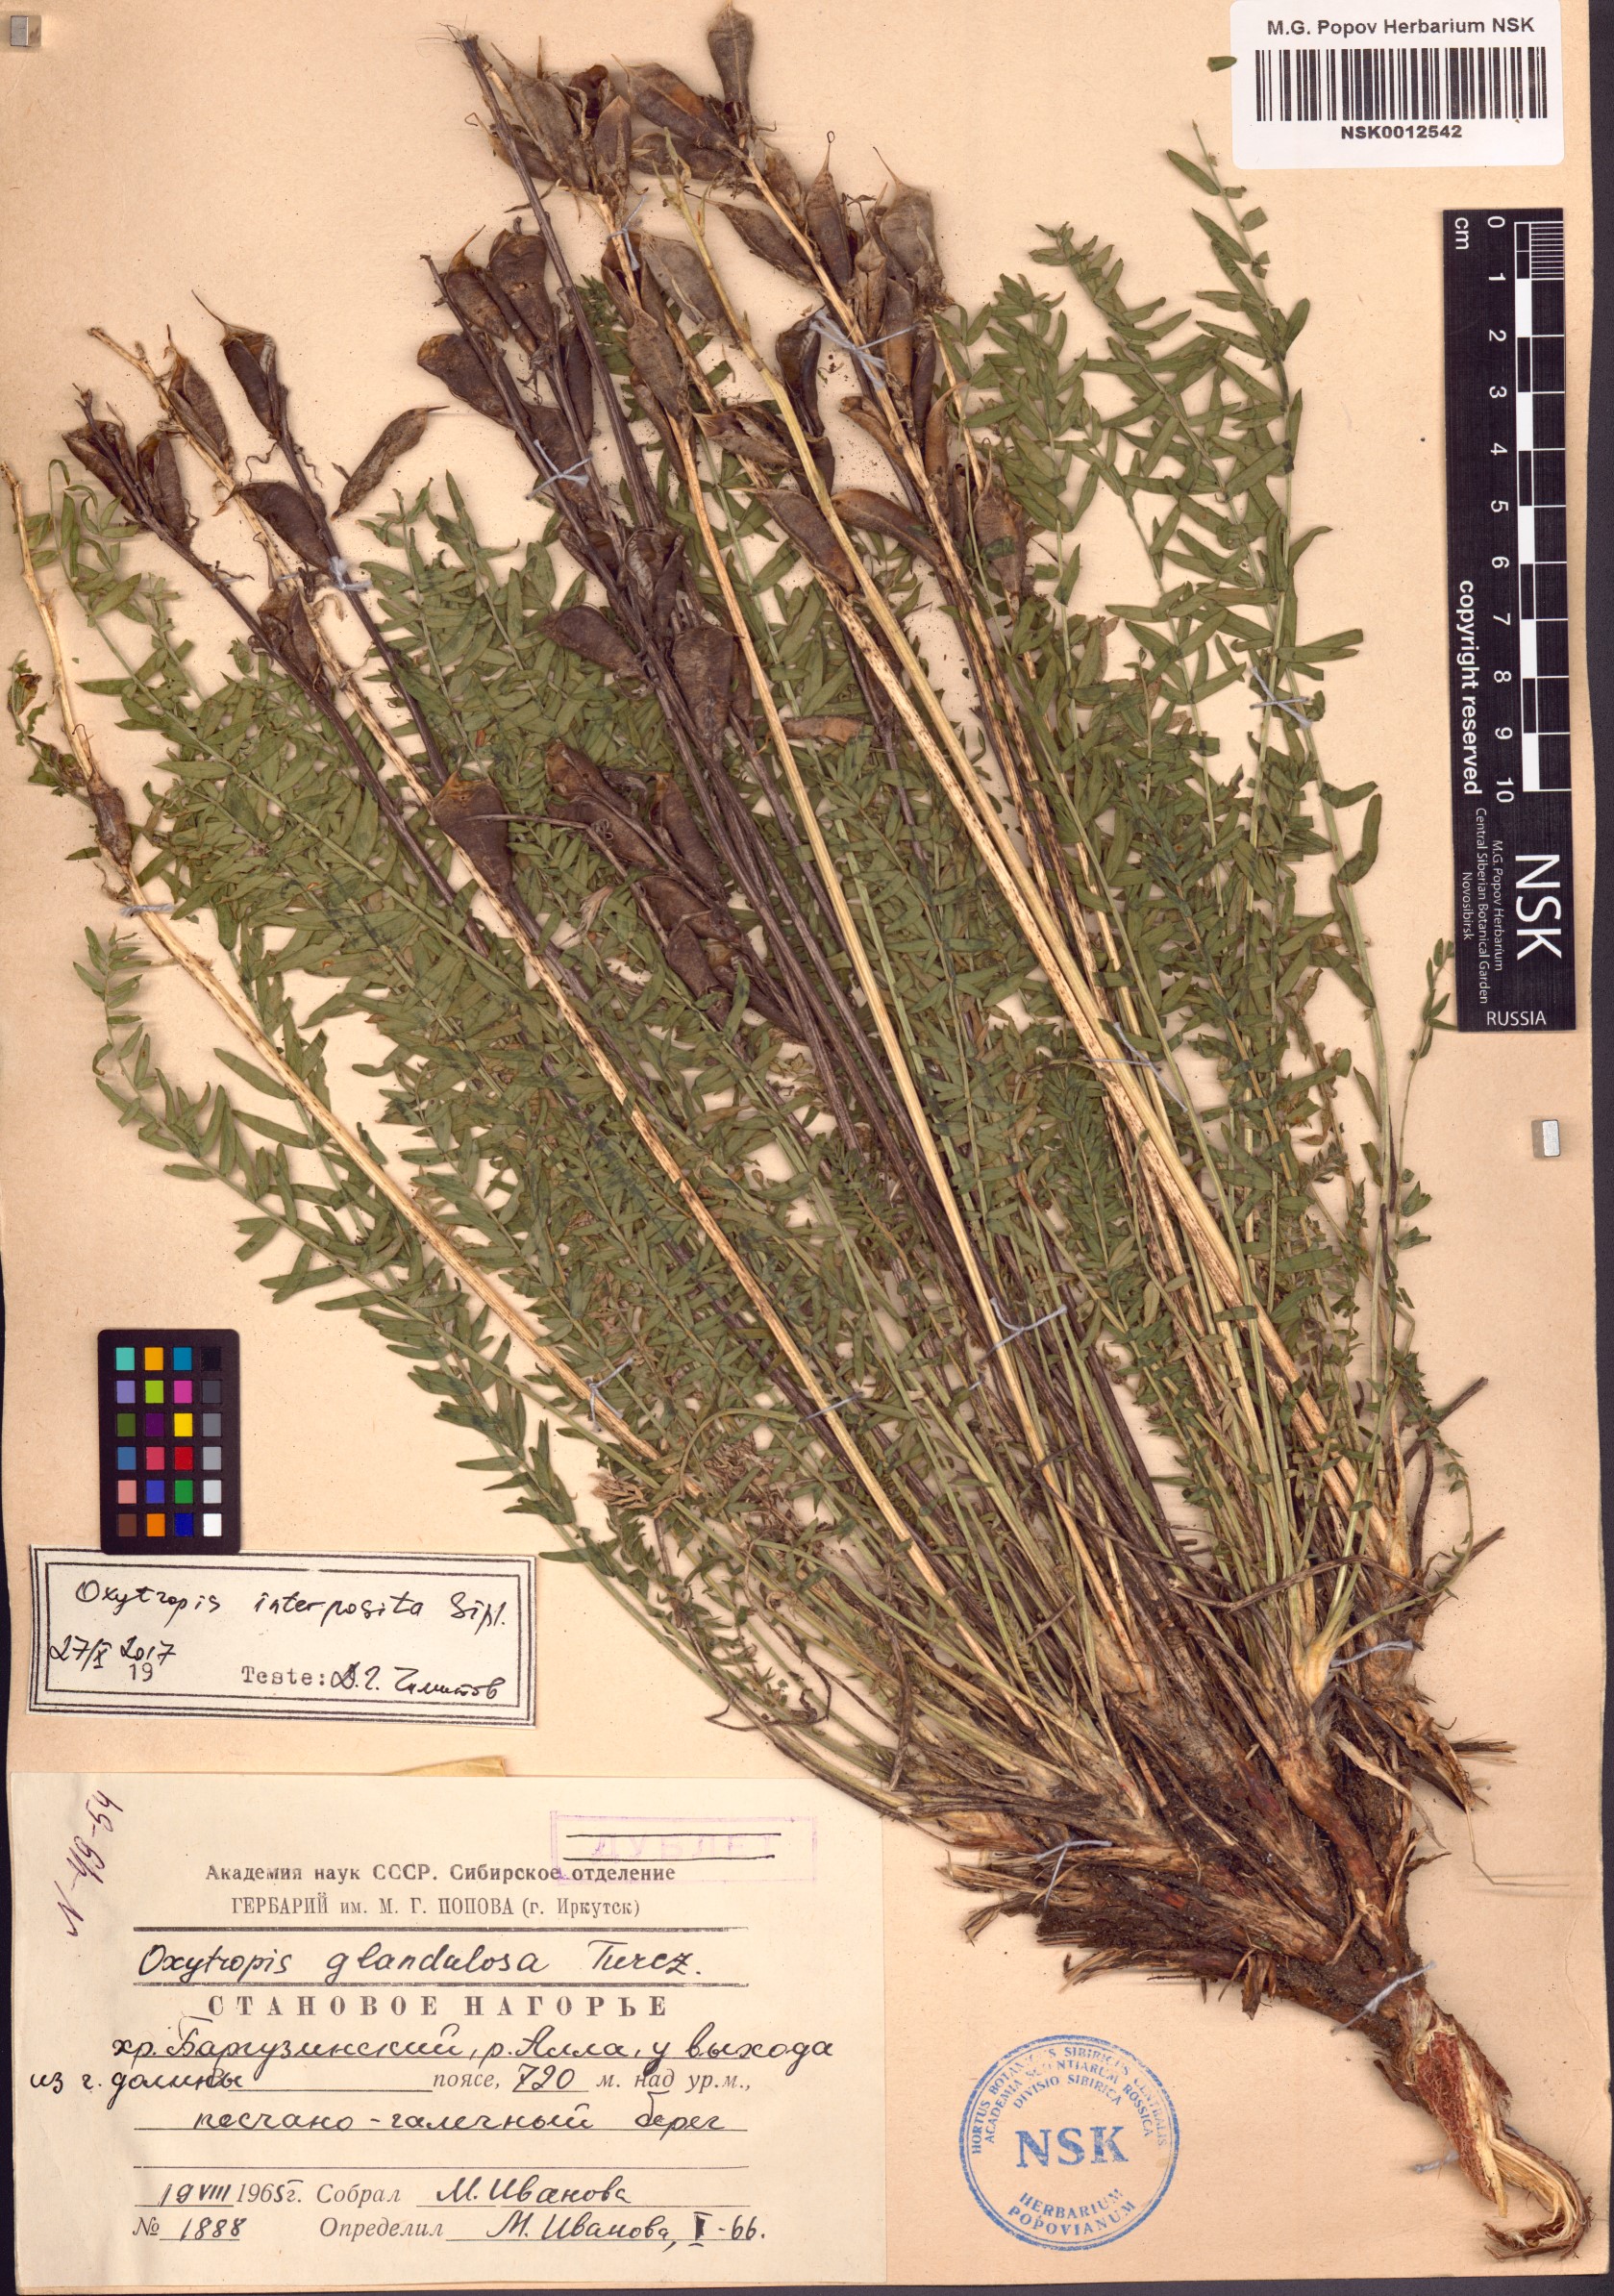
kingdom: Plantae
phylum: Tracheophyta
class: Magnoliopsida
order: Fabales
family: Fabaceae
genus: Oxytropis
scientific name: Oxytropis interposita
